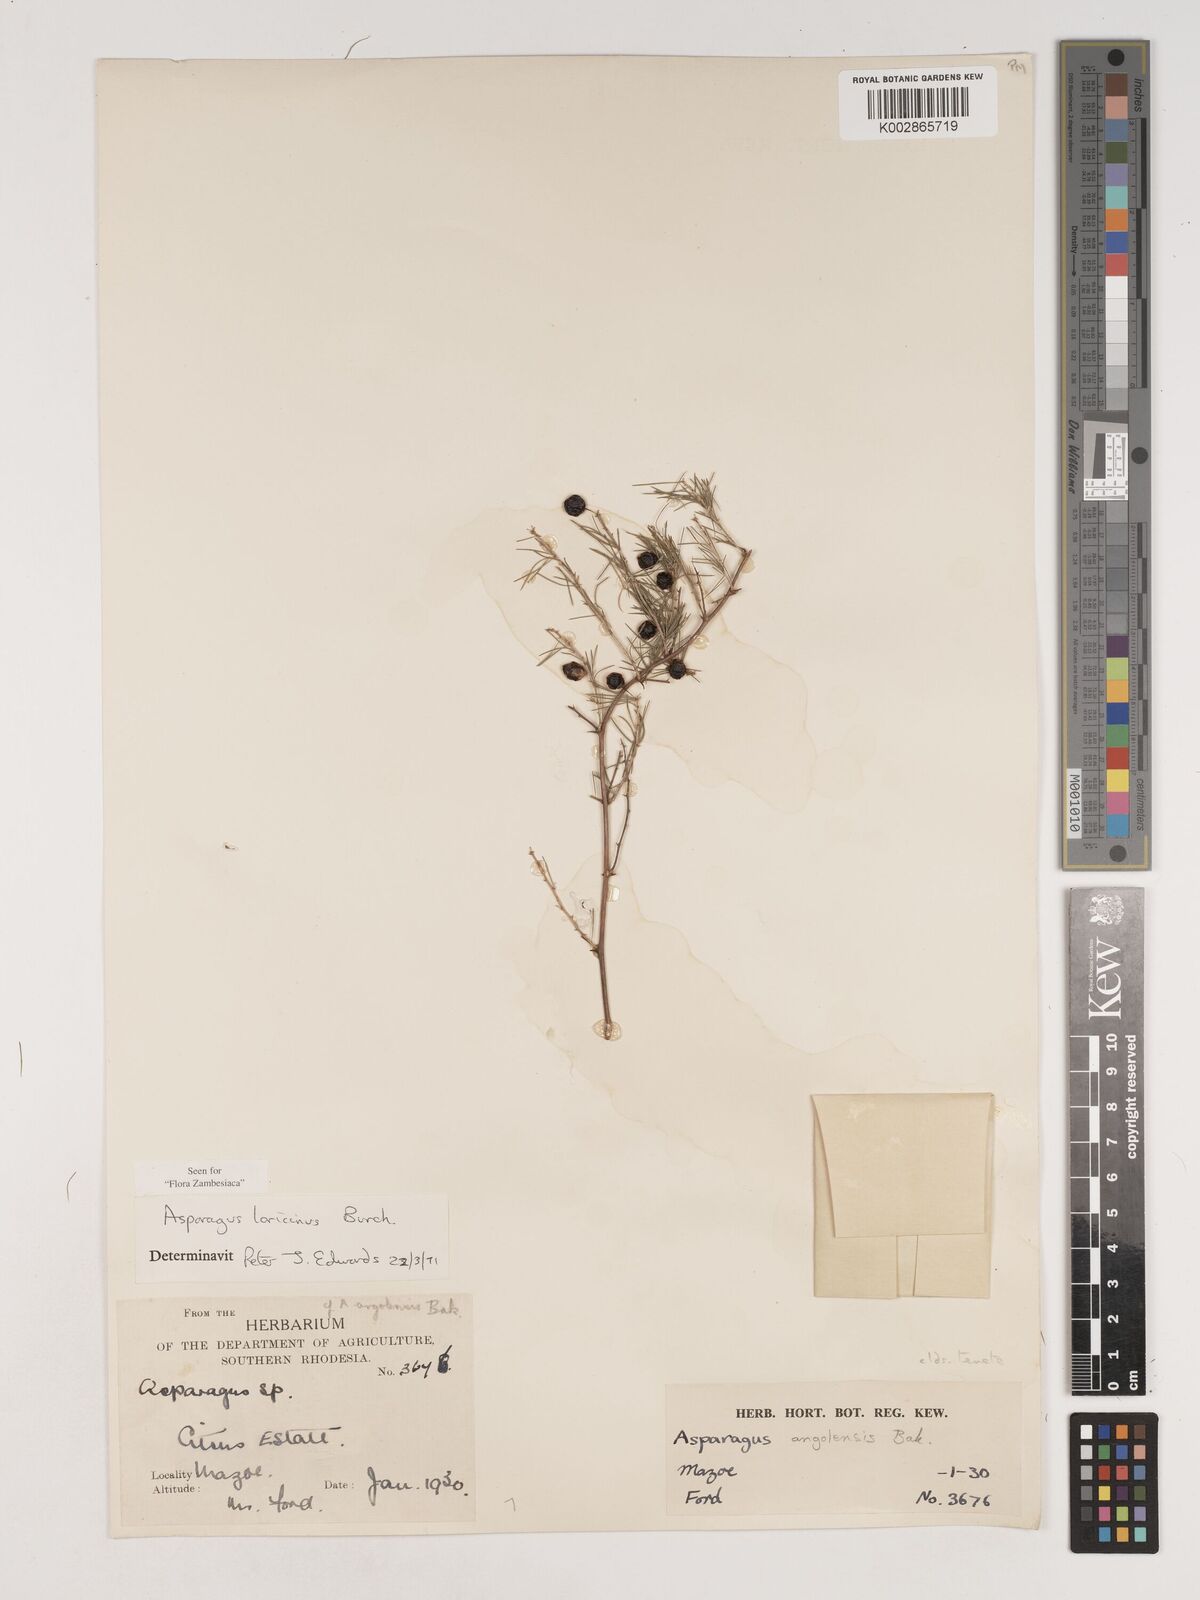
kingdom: Plantae
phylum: Tracheophyta
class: Liliopsida
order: Asparagales
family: Asparagaceae
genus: Asparagus
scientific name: Asparagus laricinus
